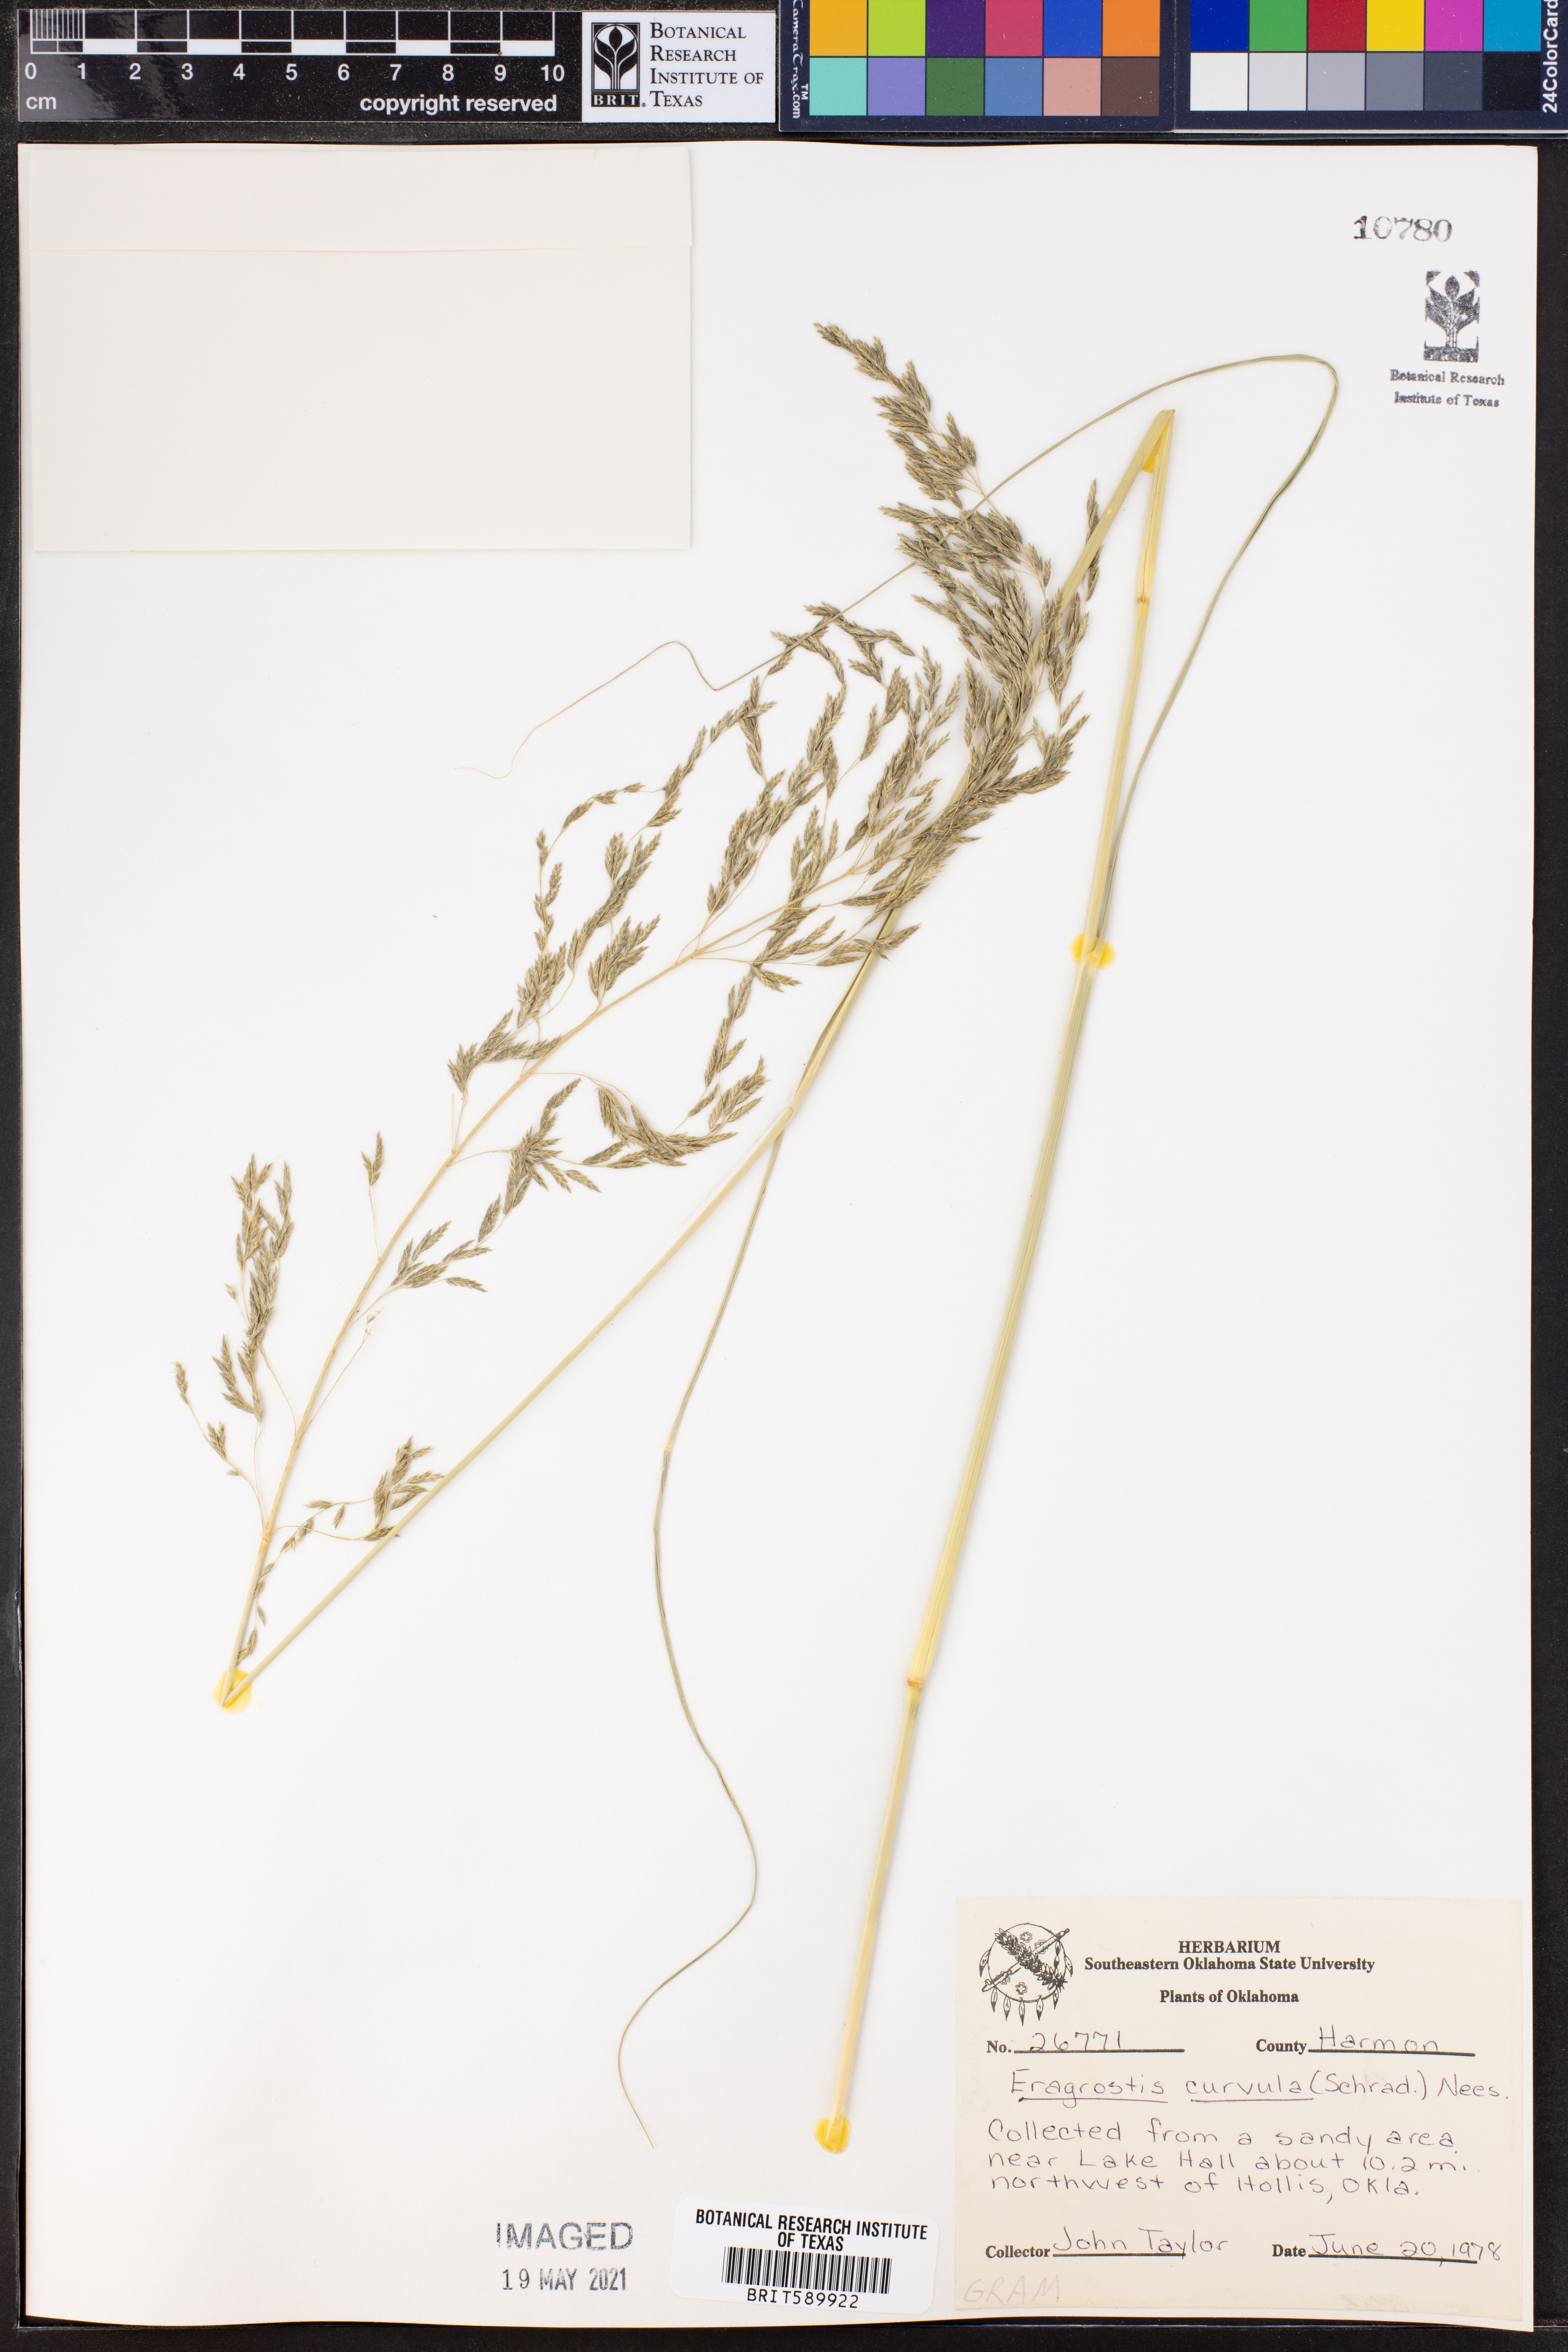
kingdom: Plantae
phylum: Tracheophyta
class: Liliopsida
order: Poales
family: Poaceae
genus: Eragrostis
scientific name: Eragrostis curvula
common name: African love-grass
